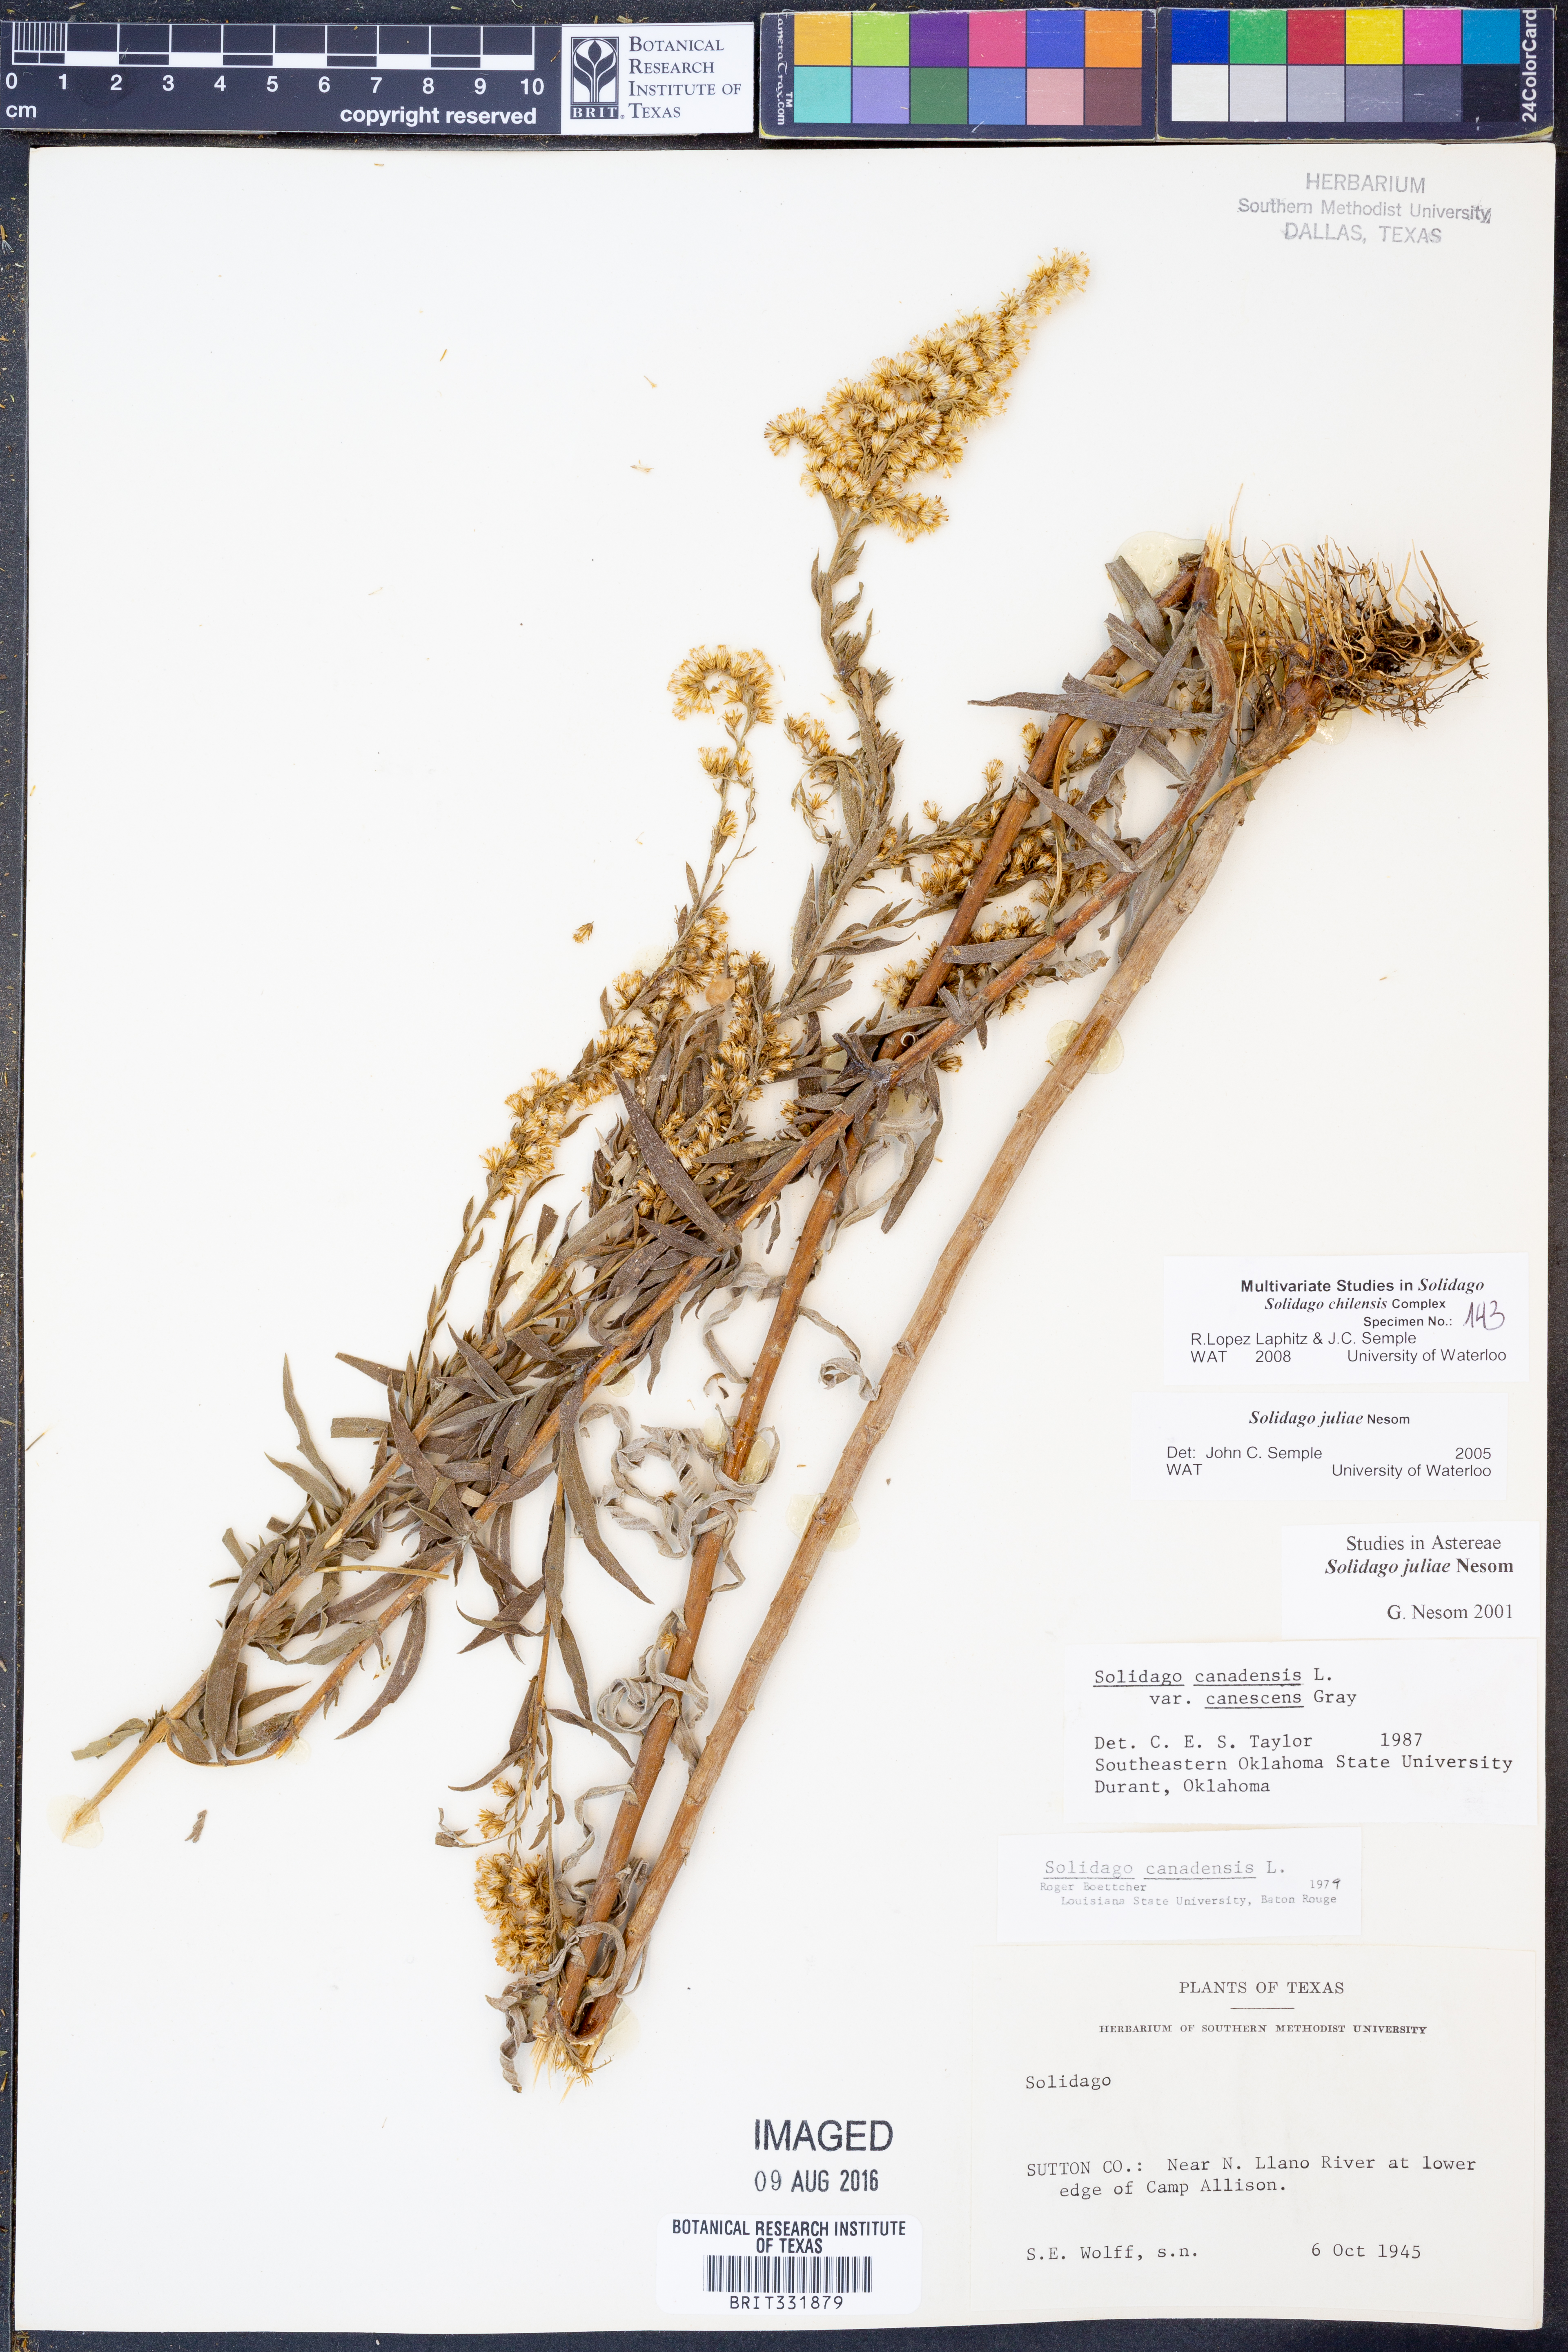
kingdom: Plantae
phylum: Tracheophyta
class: Magnoliopsida
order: Asterales
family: Asteraceae
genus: Solidago
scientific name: Solidago juliae
